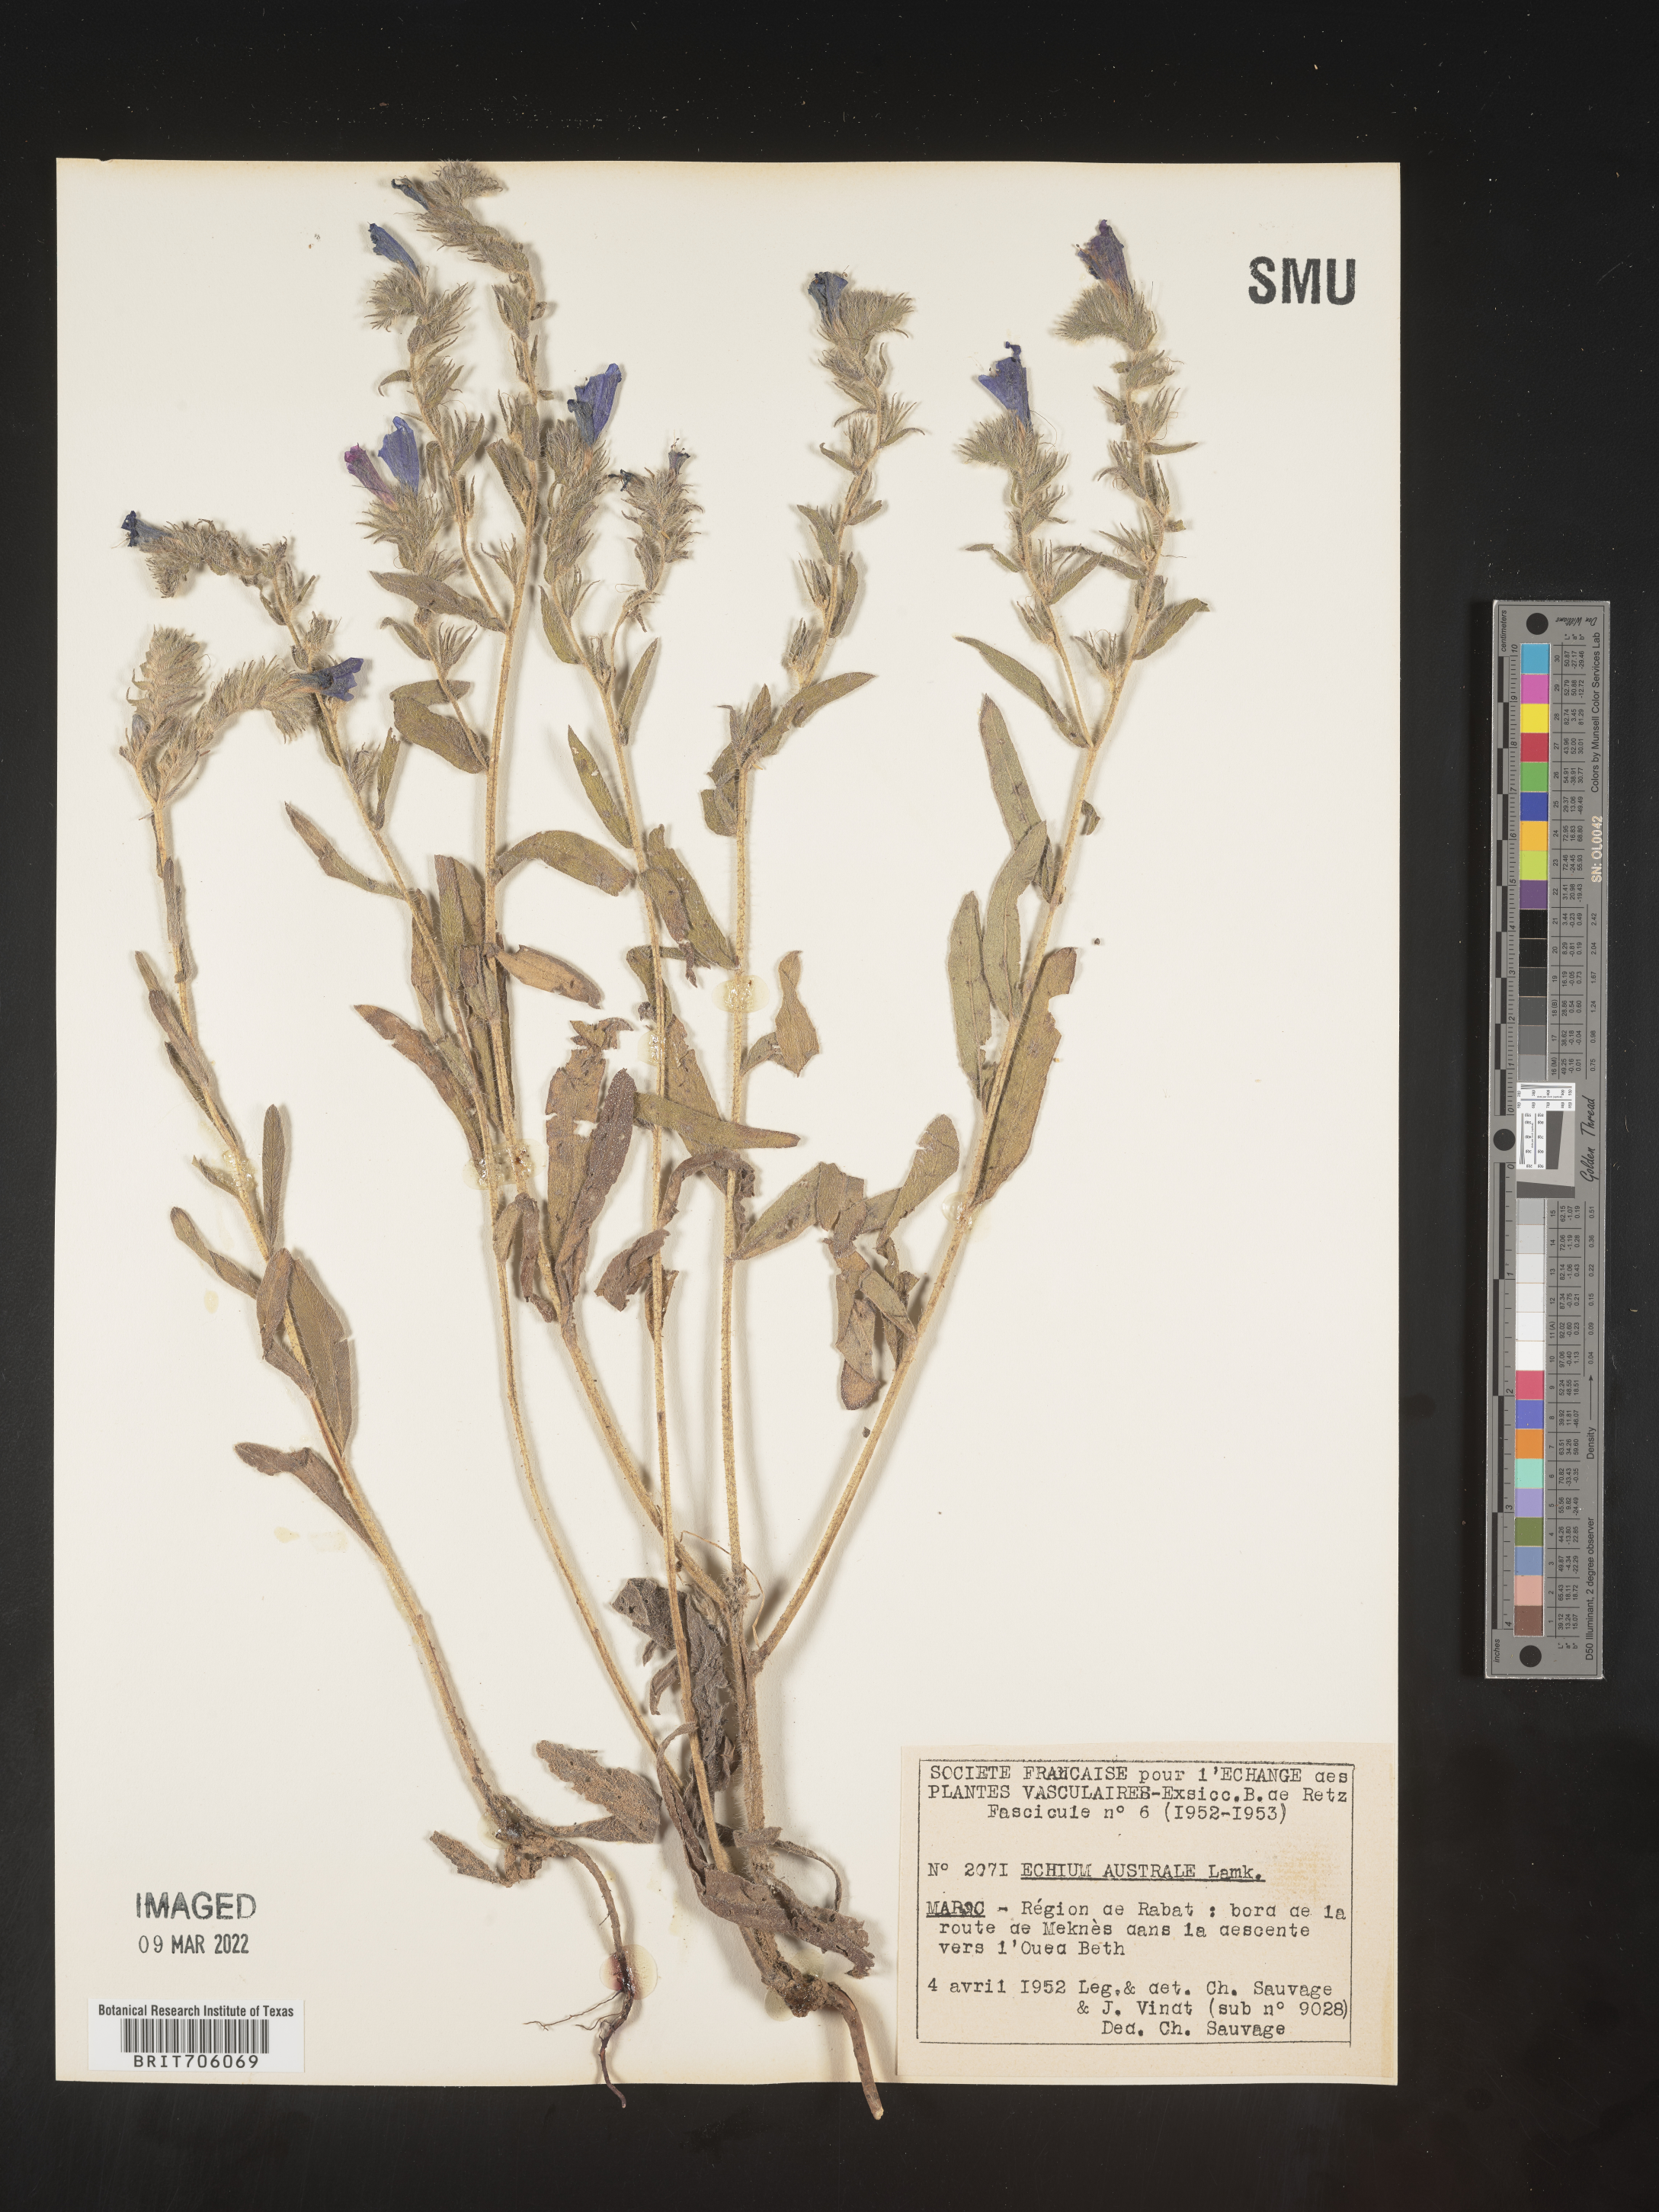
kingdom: Plantae
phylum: Tracheophyta
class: Magnoliopsida
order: Boraginales
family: Boraginaceae
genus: Echium
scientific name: Echium
